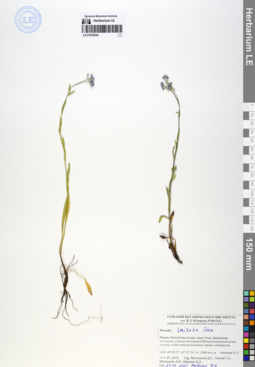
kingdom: Plantae
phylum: Tracheophyta
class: Magnoliopsida
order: Boraginales
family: Boraginaceae
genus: Myosotis
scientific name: Myosotis imitata
